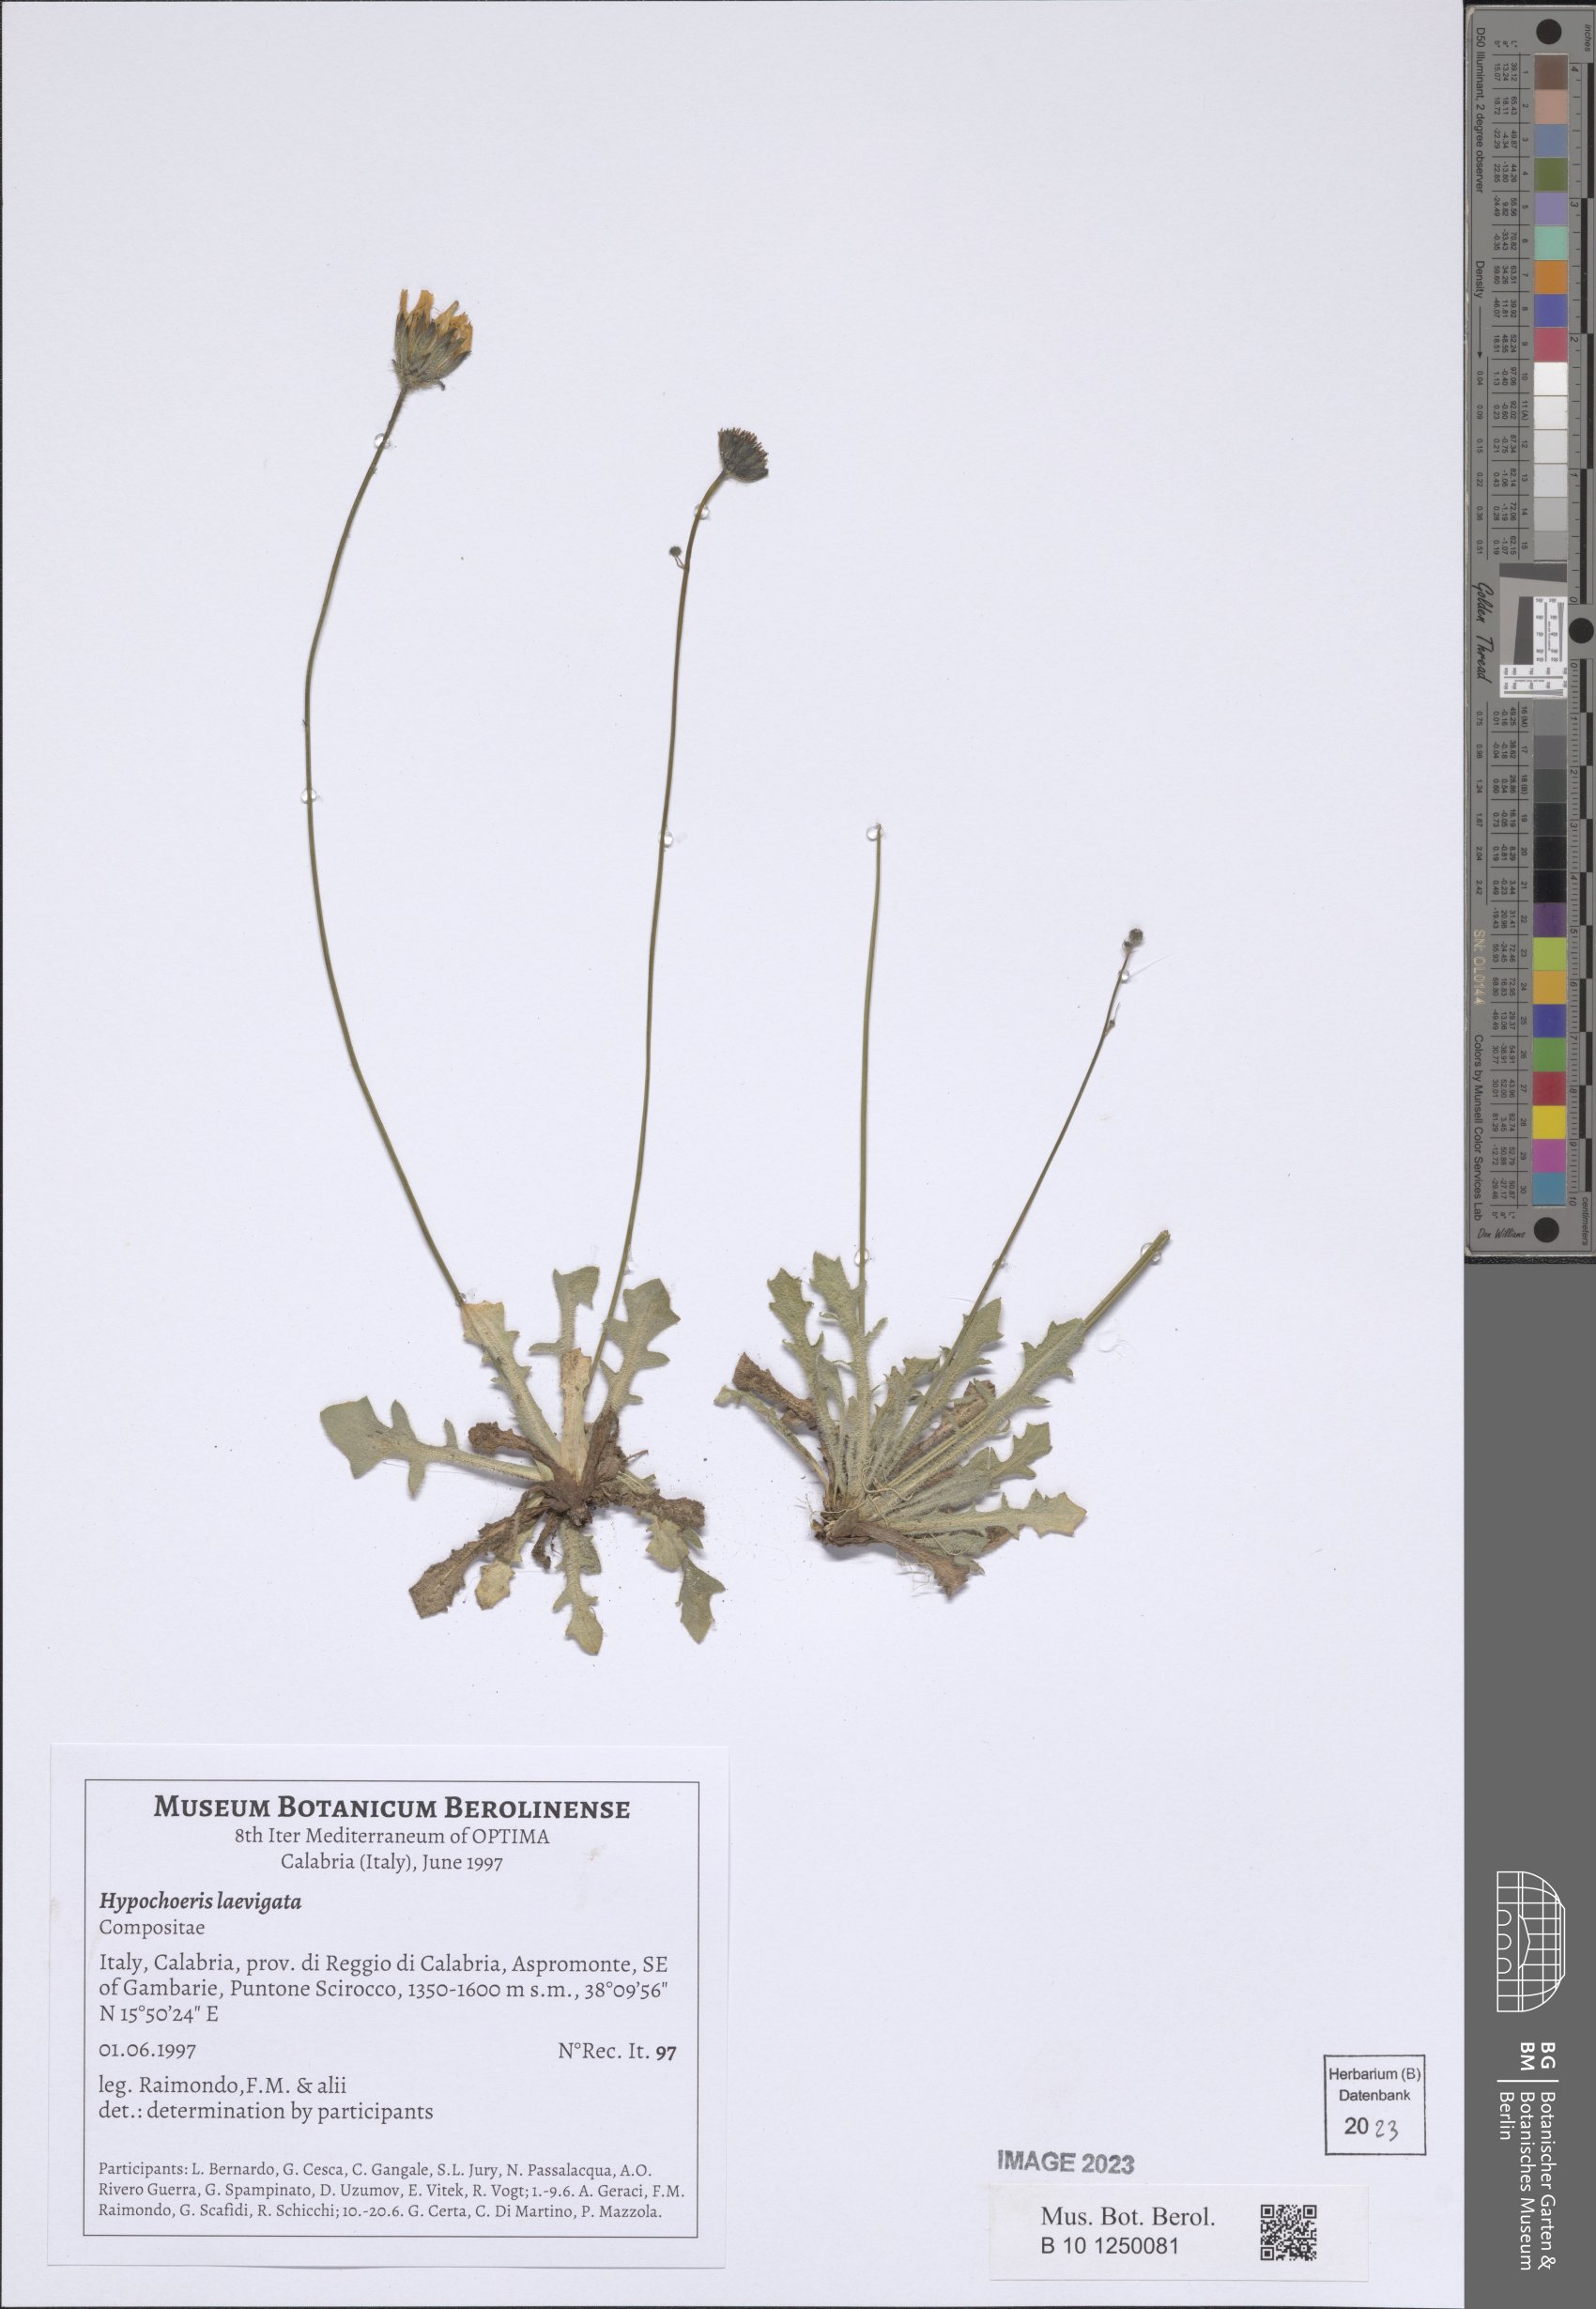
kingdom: Plantae
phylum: Tracheophyta
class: Magnoliopsida
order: Asterales
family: Asteraceae
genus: Achyrophorus
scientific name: Achyrophorus laevigatus
